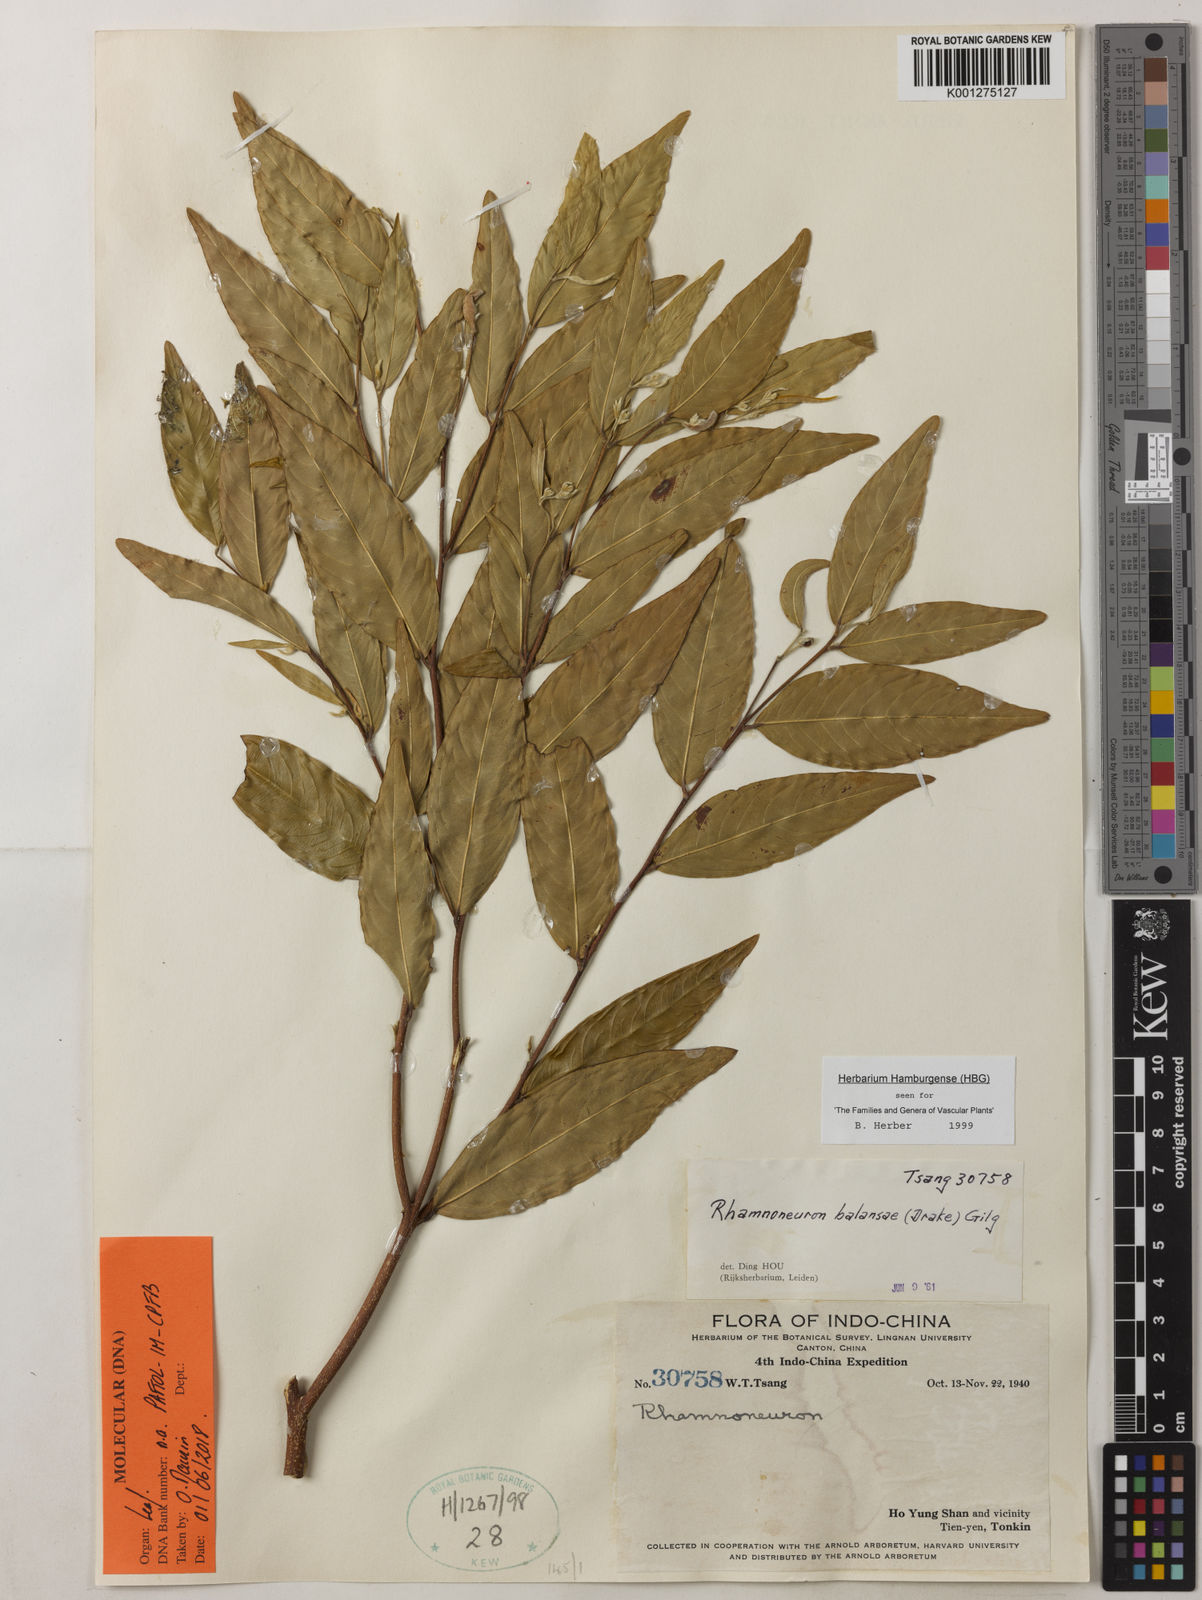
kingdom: Plantae
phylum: Tracheophyta
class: Magnoliopsida
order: Malvales
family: Thymelaeaceae
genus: Rhamnoneuron
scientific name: Rhamnoneuron balansae
